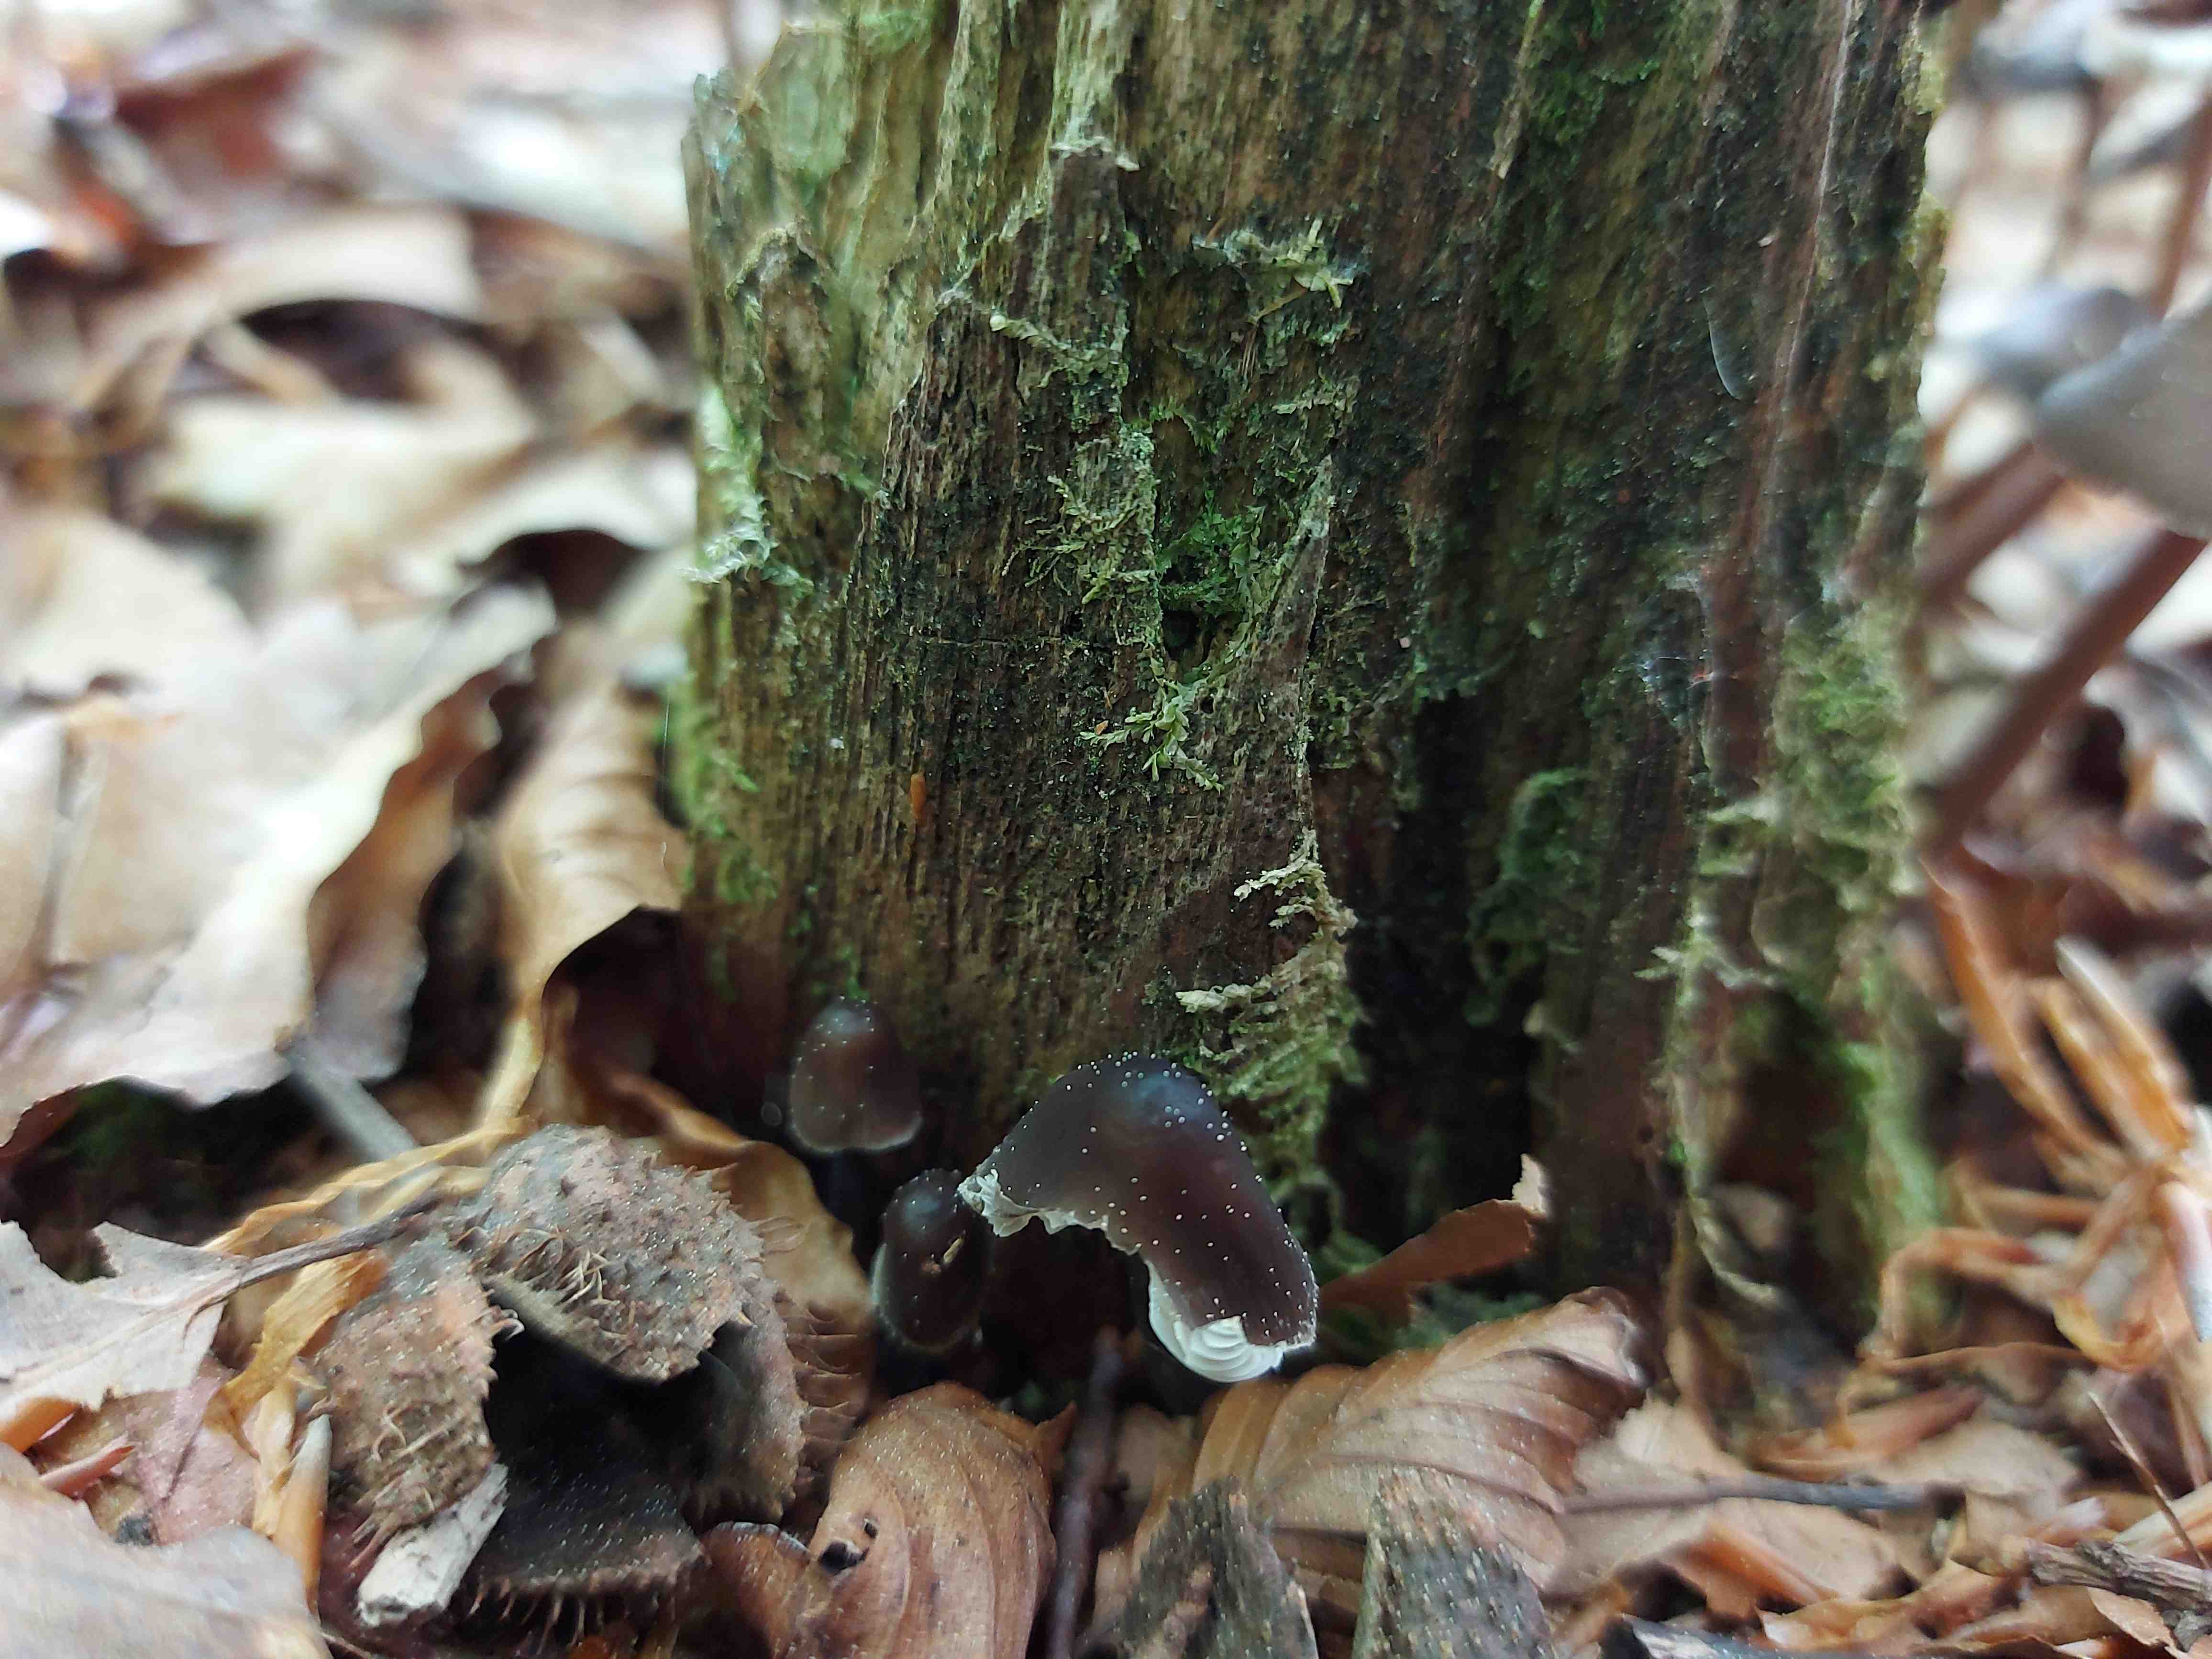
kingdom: Fungi
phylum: Basidiomycota
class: Agaricomycetes
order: Agaricales
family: Mycenaceae
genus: Mycena
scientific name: Mycena
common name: huesvamp
